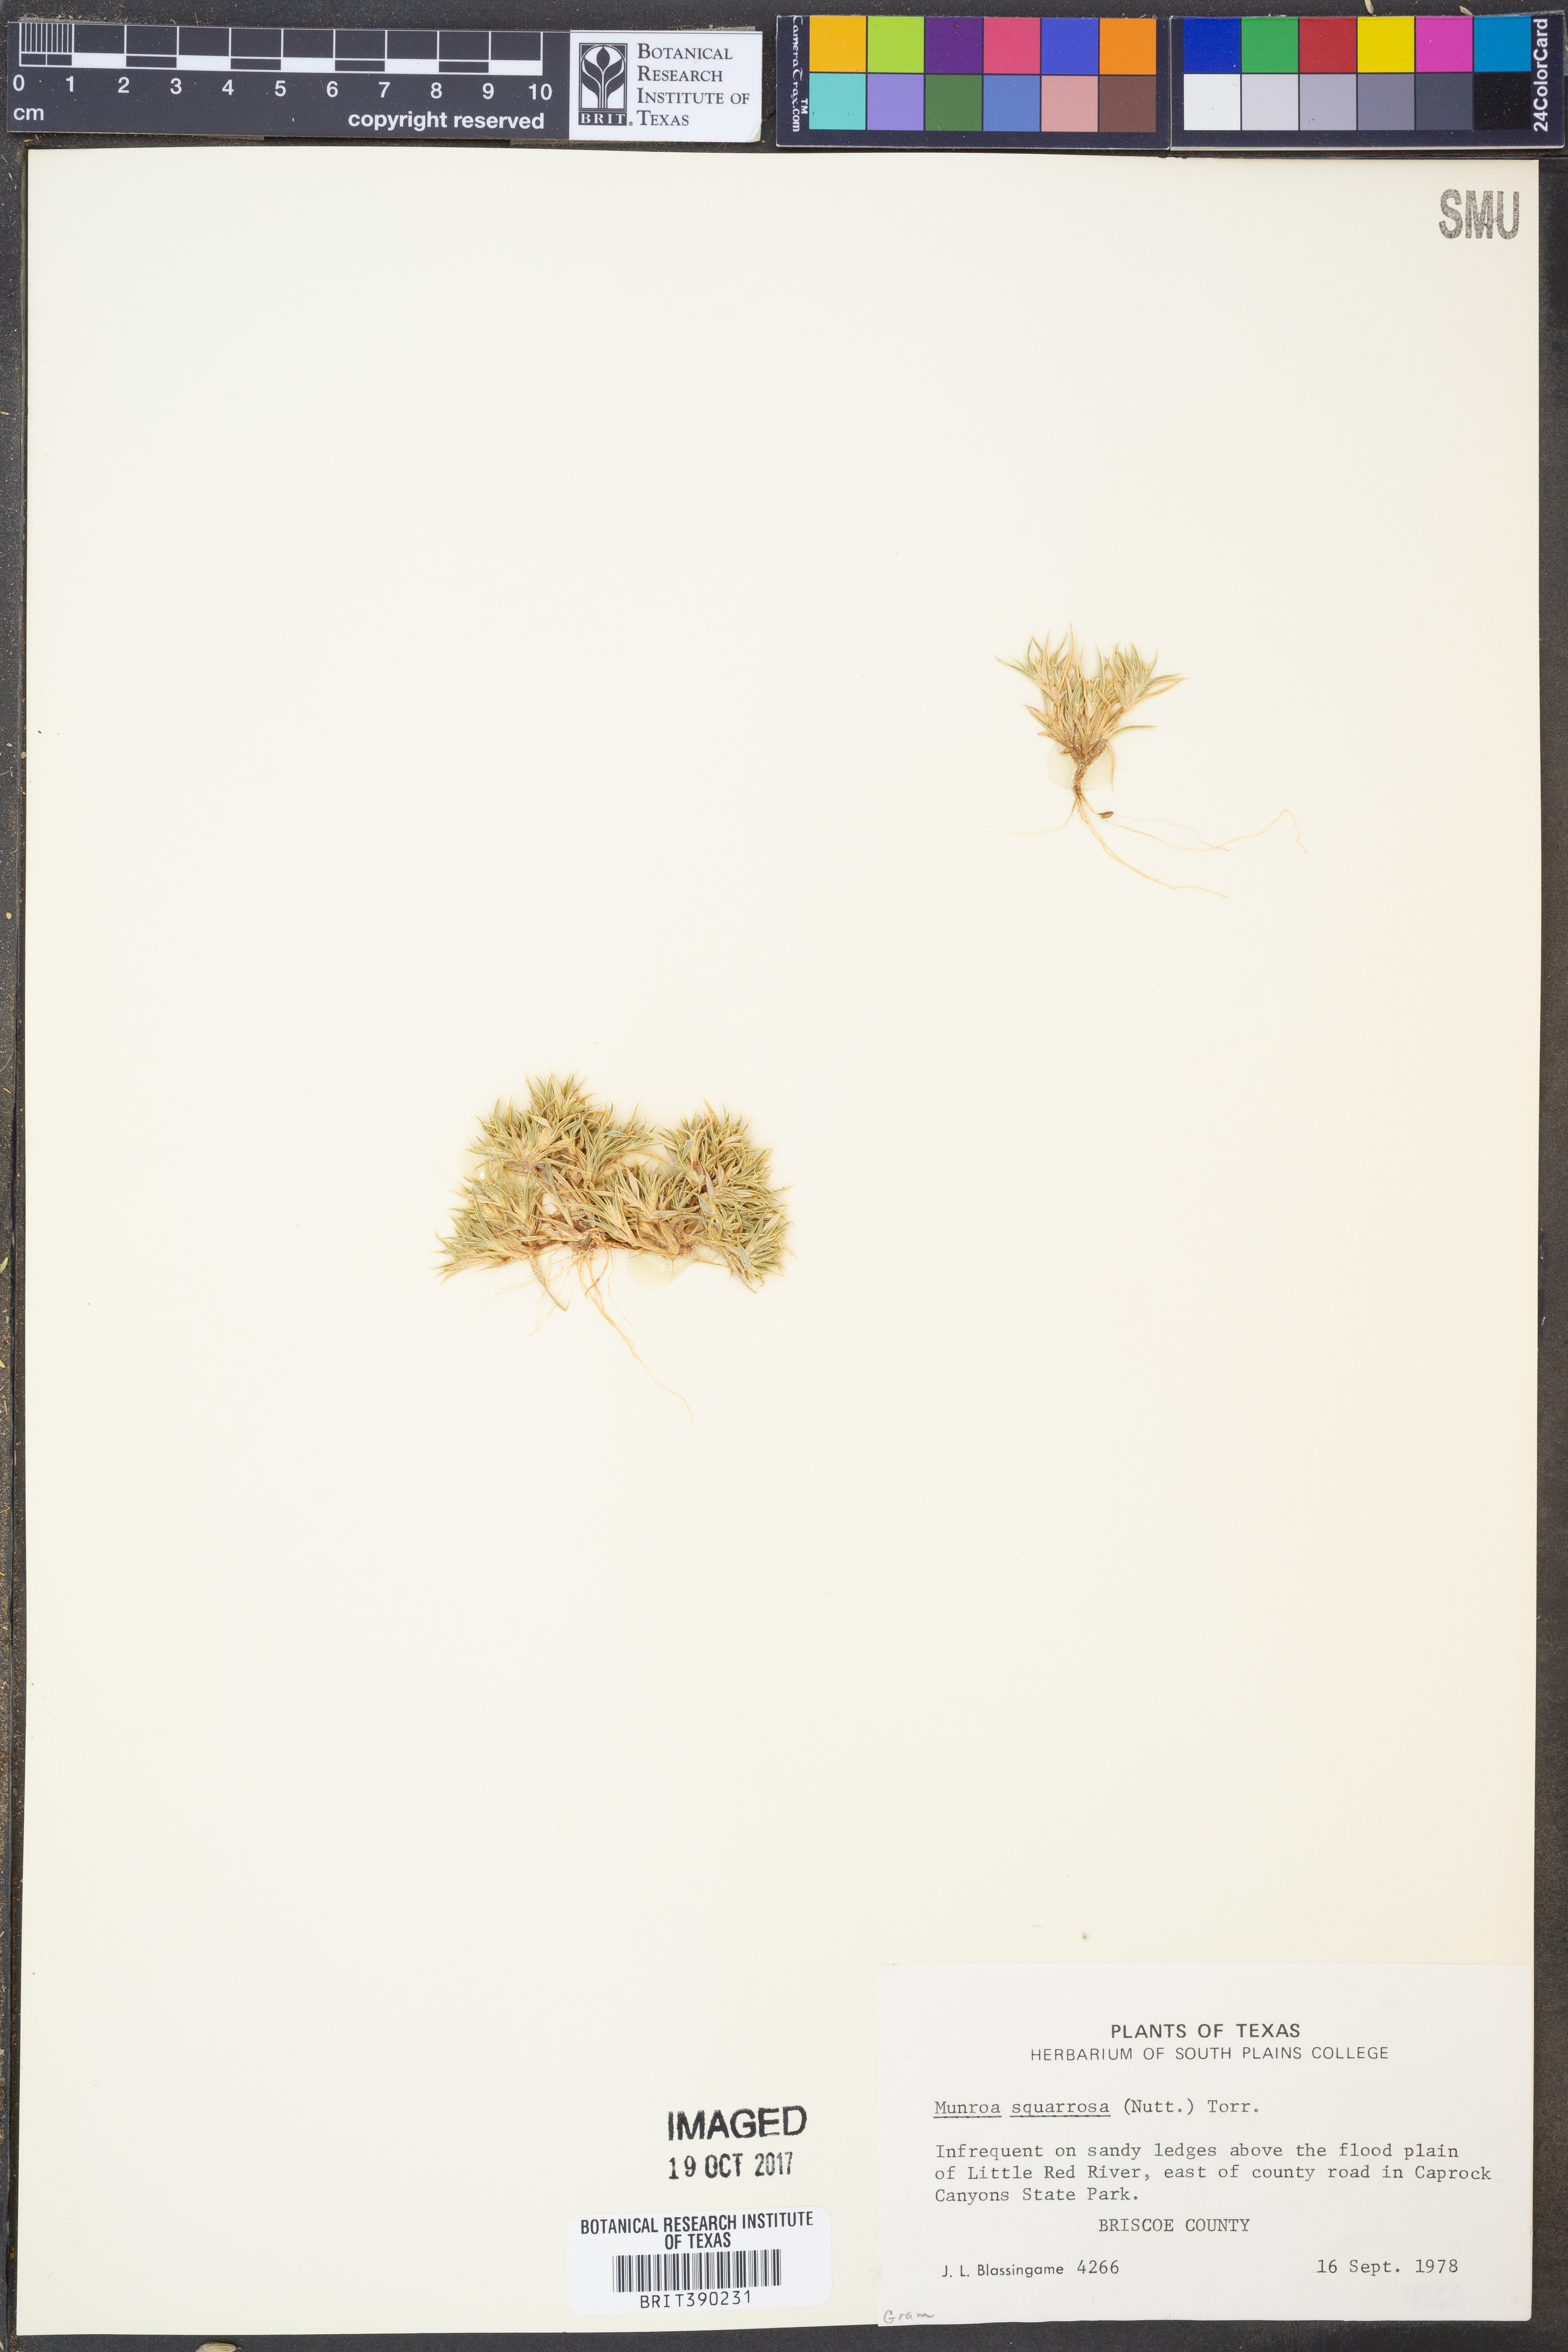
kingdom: Plantae
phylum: Tracheophyta
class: Liliopsida
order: Poales
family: Poaceae
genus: Munroa
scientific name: Munroa squarrosa
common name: False buffalo grass
